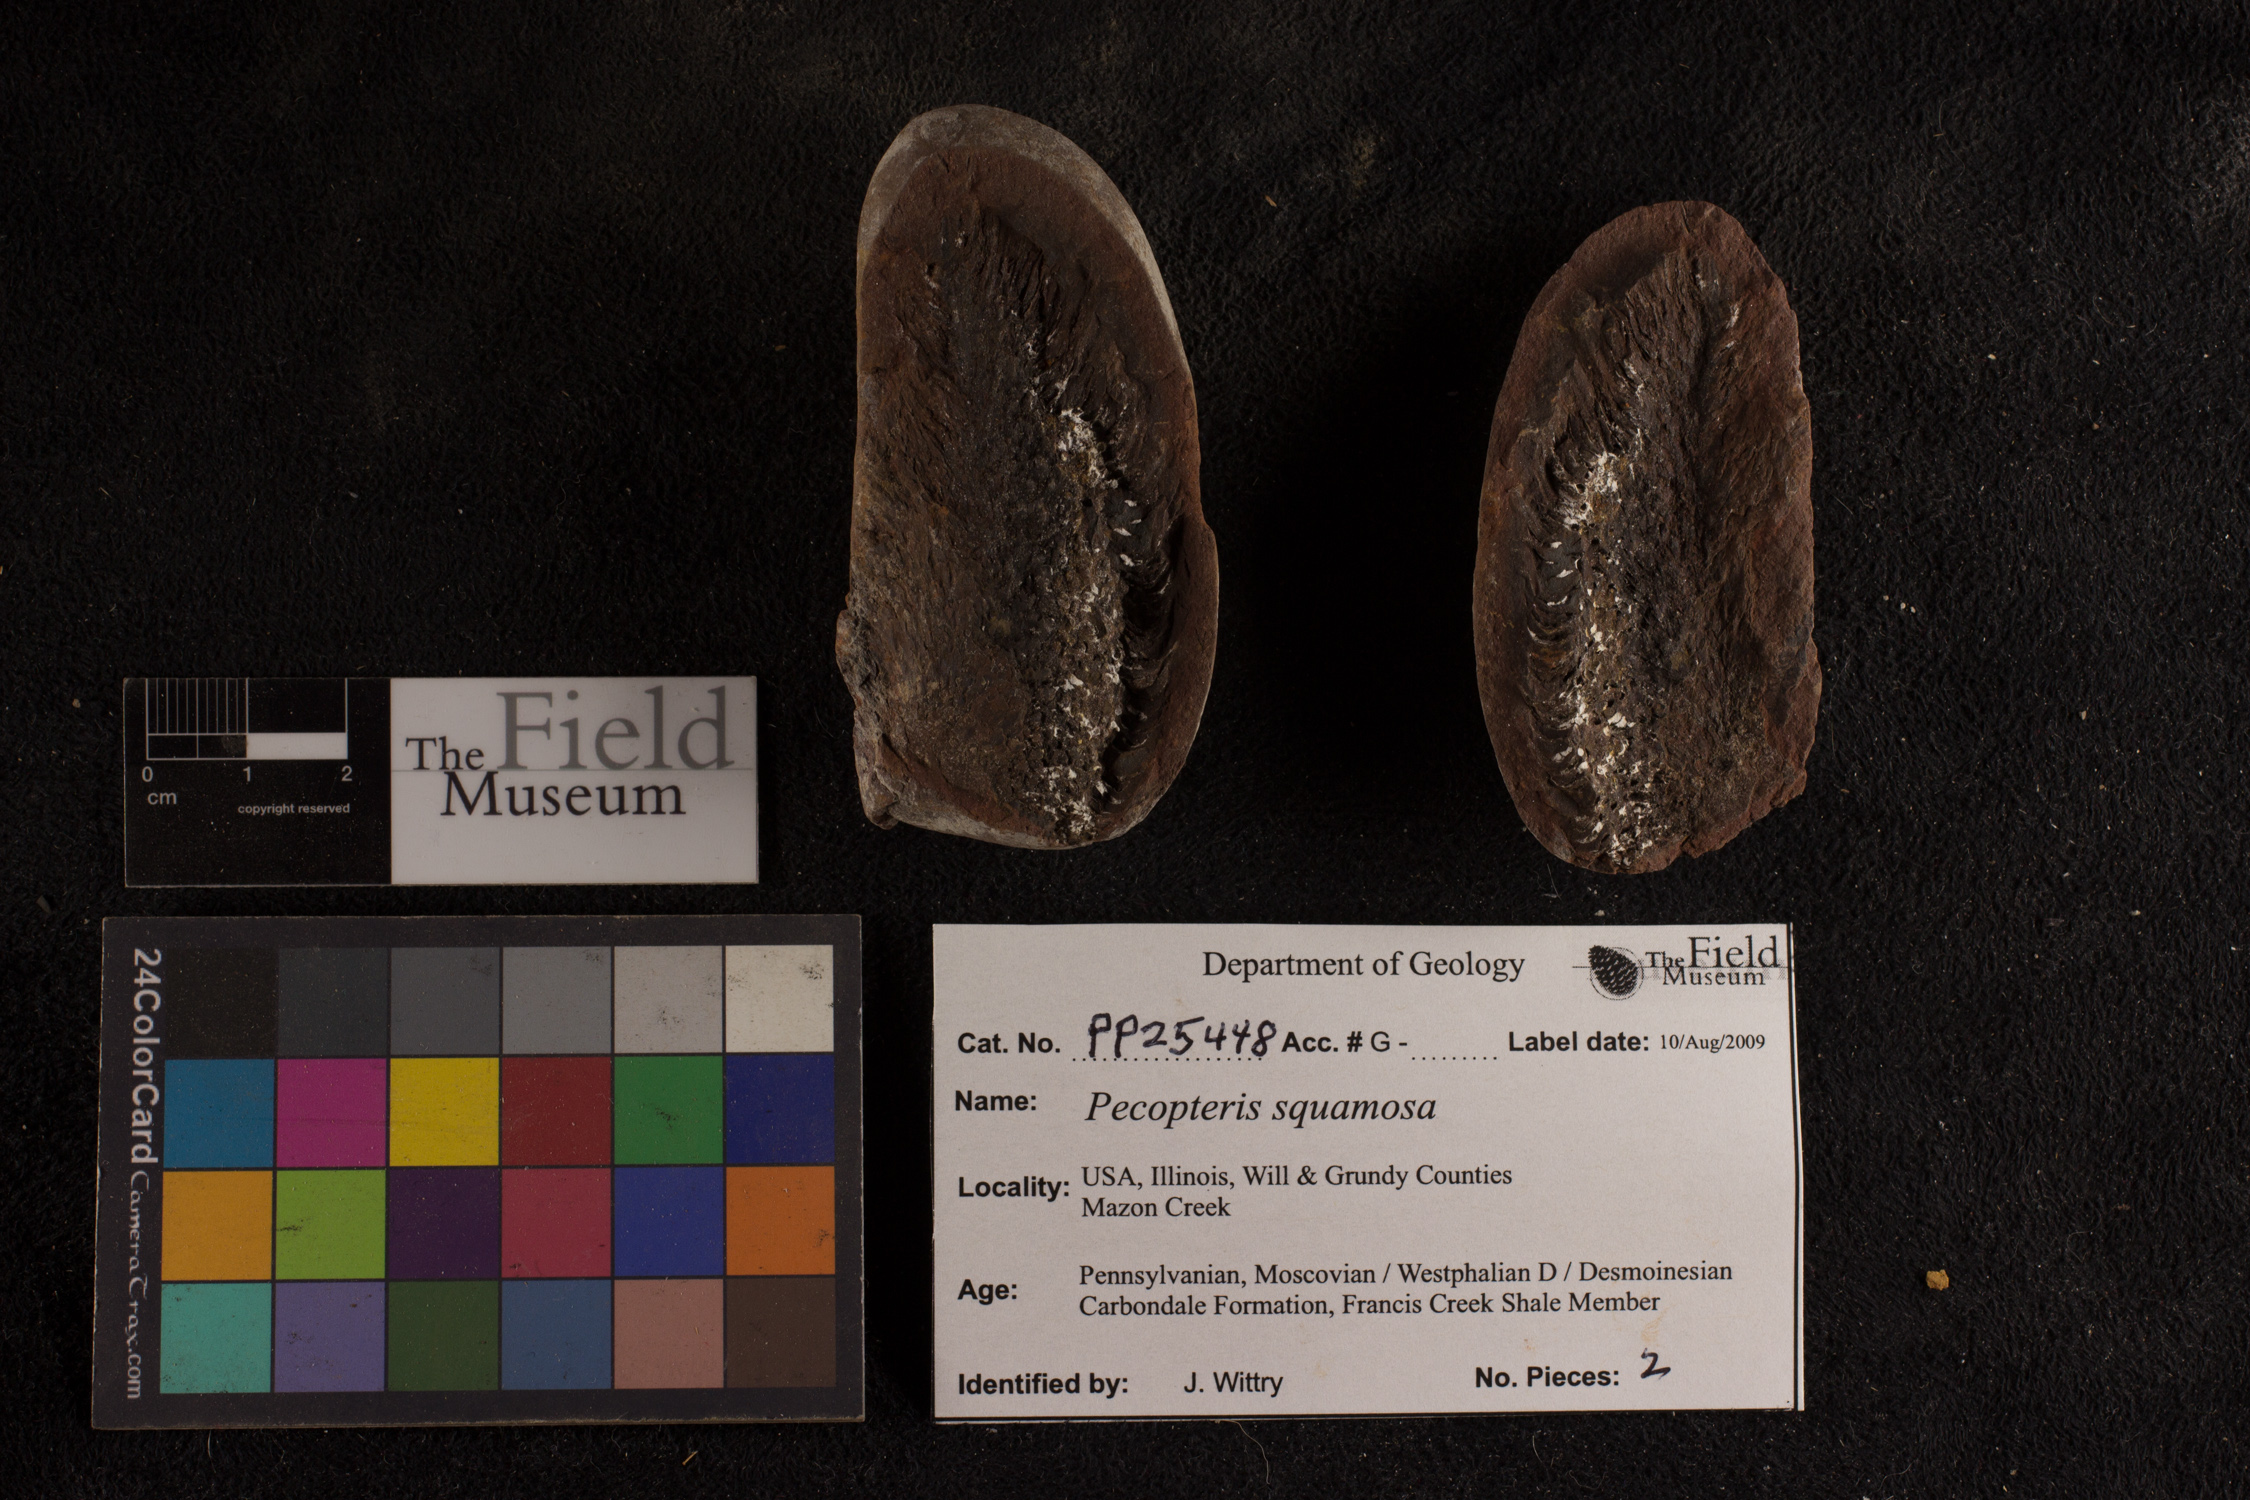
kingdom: Plantae
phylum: Tracheophyta
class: Polypodiopsida
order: Marattiales
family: Asterothecaceae
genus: Pecopteris
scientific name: Pecopteris
